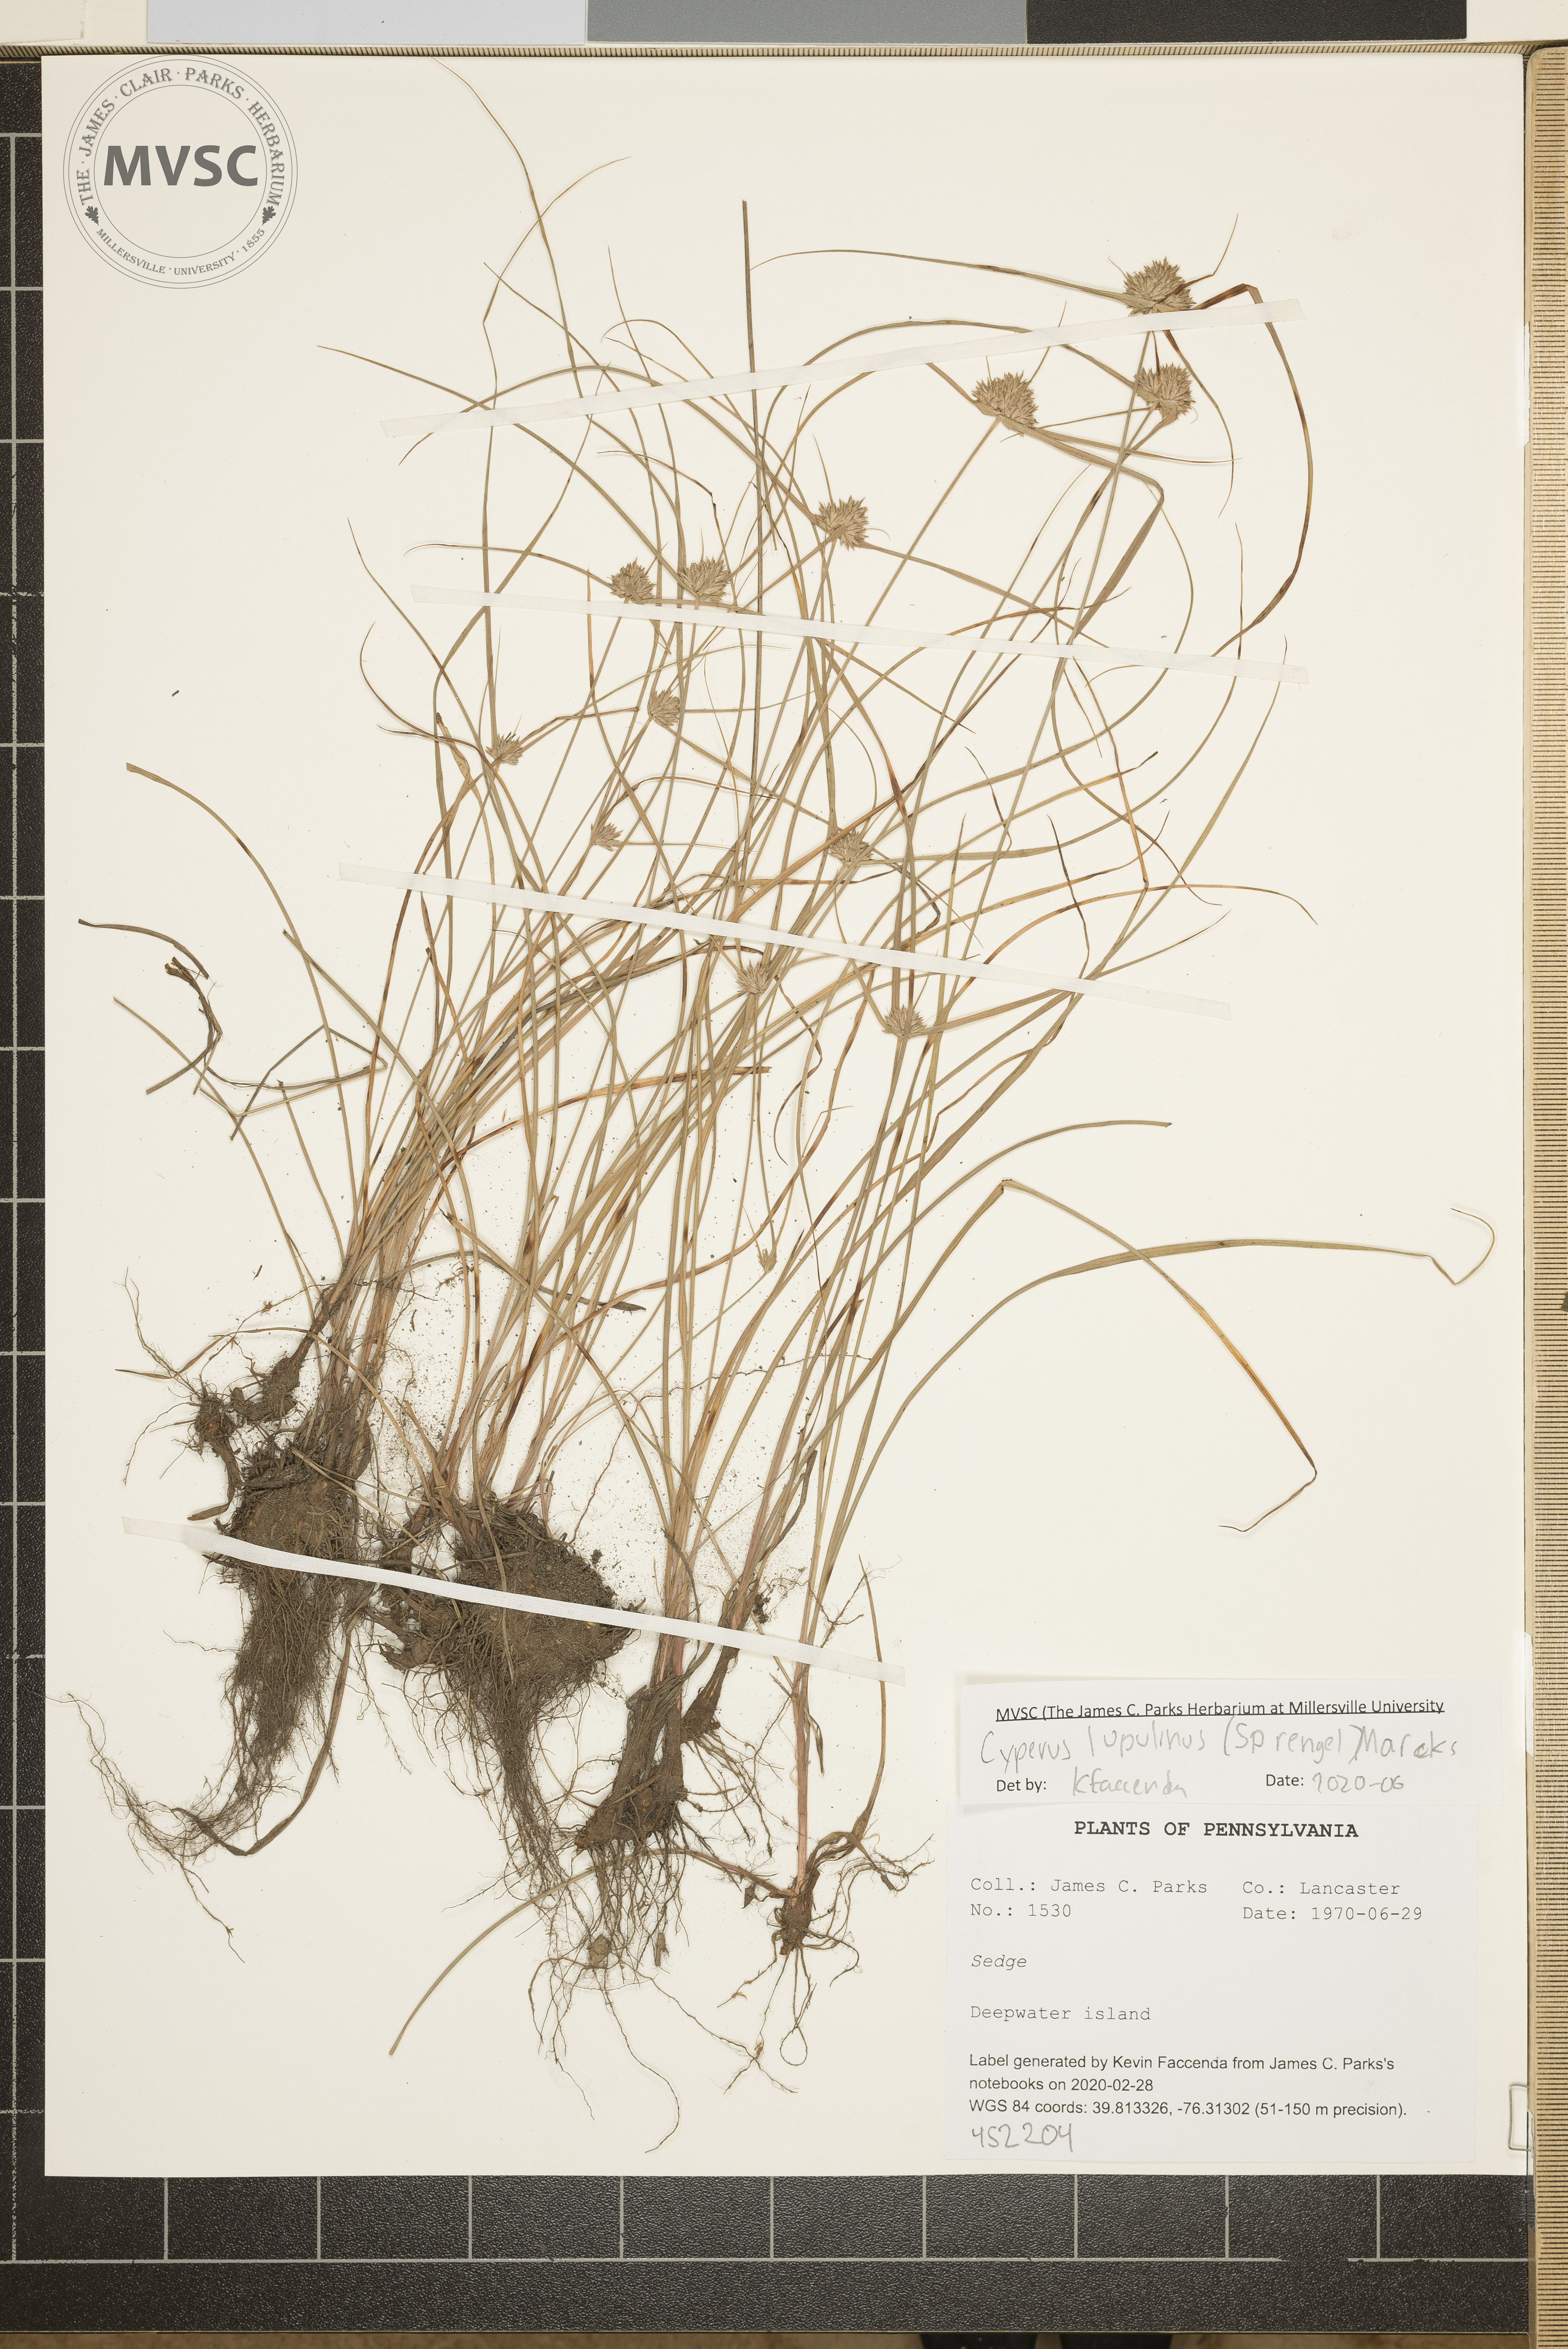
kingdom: Plantae
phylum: Tracheophyta
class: Liliopsida
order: Poales
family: Cyperaceae
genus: Cyperus
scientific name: Cyperus lupulinus
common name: Great plains flatsedge
